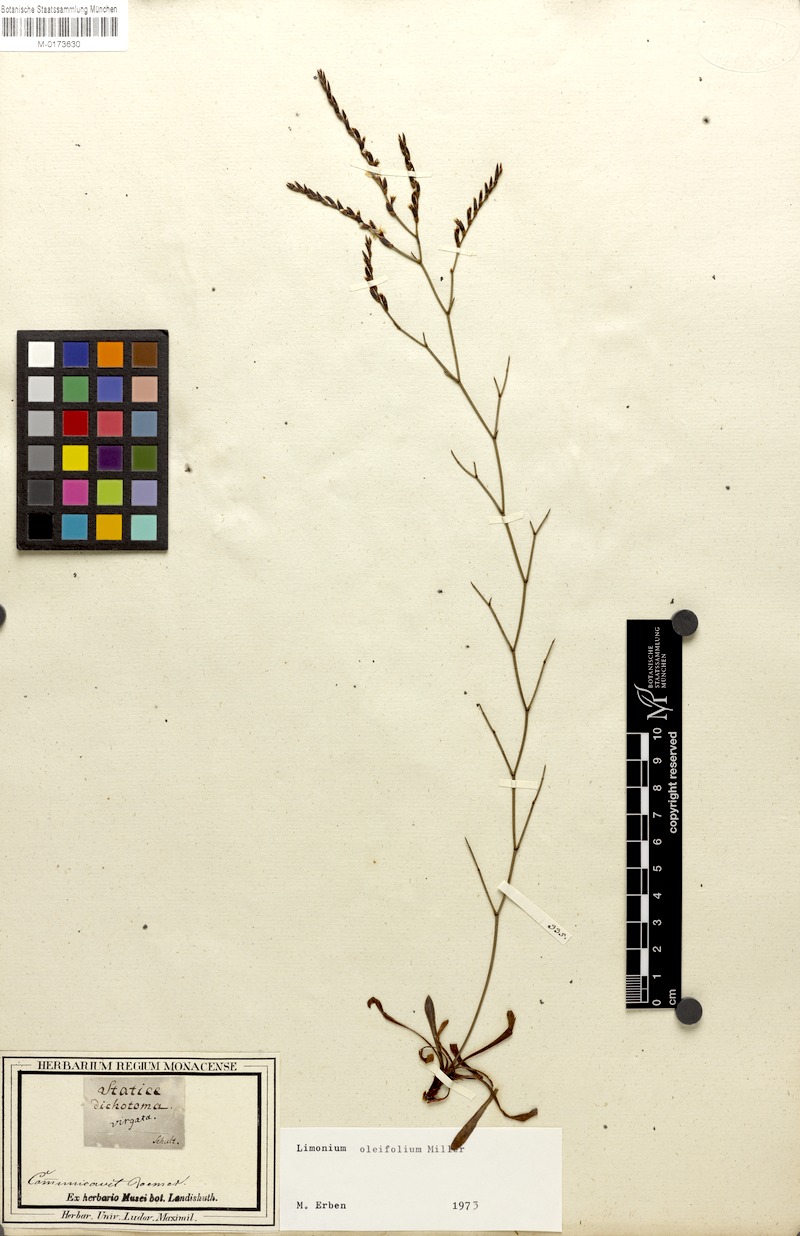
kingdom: Plantae
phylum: Tracheophyta
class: Magnoliopsida
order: Caryophyllales
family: Plumbaginaceae
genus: Limonium
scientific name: Limonium virgatum
